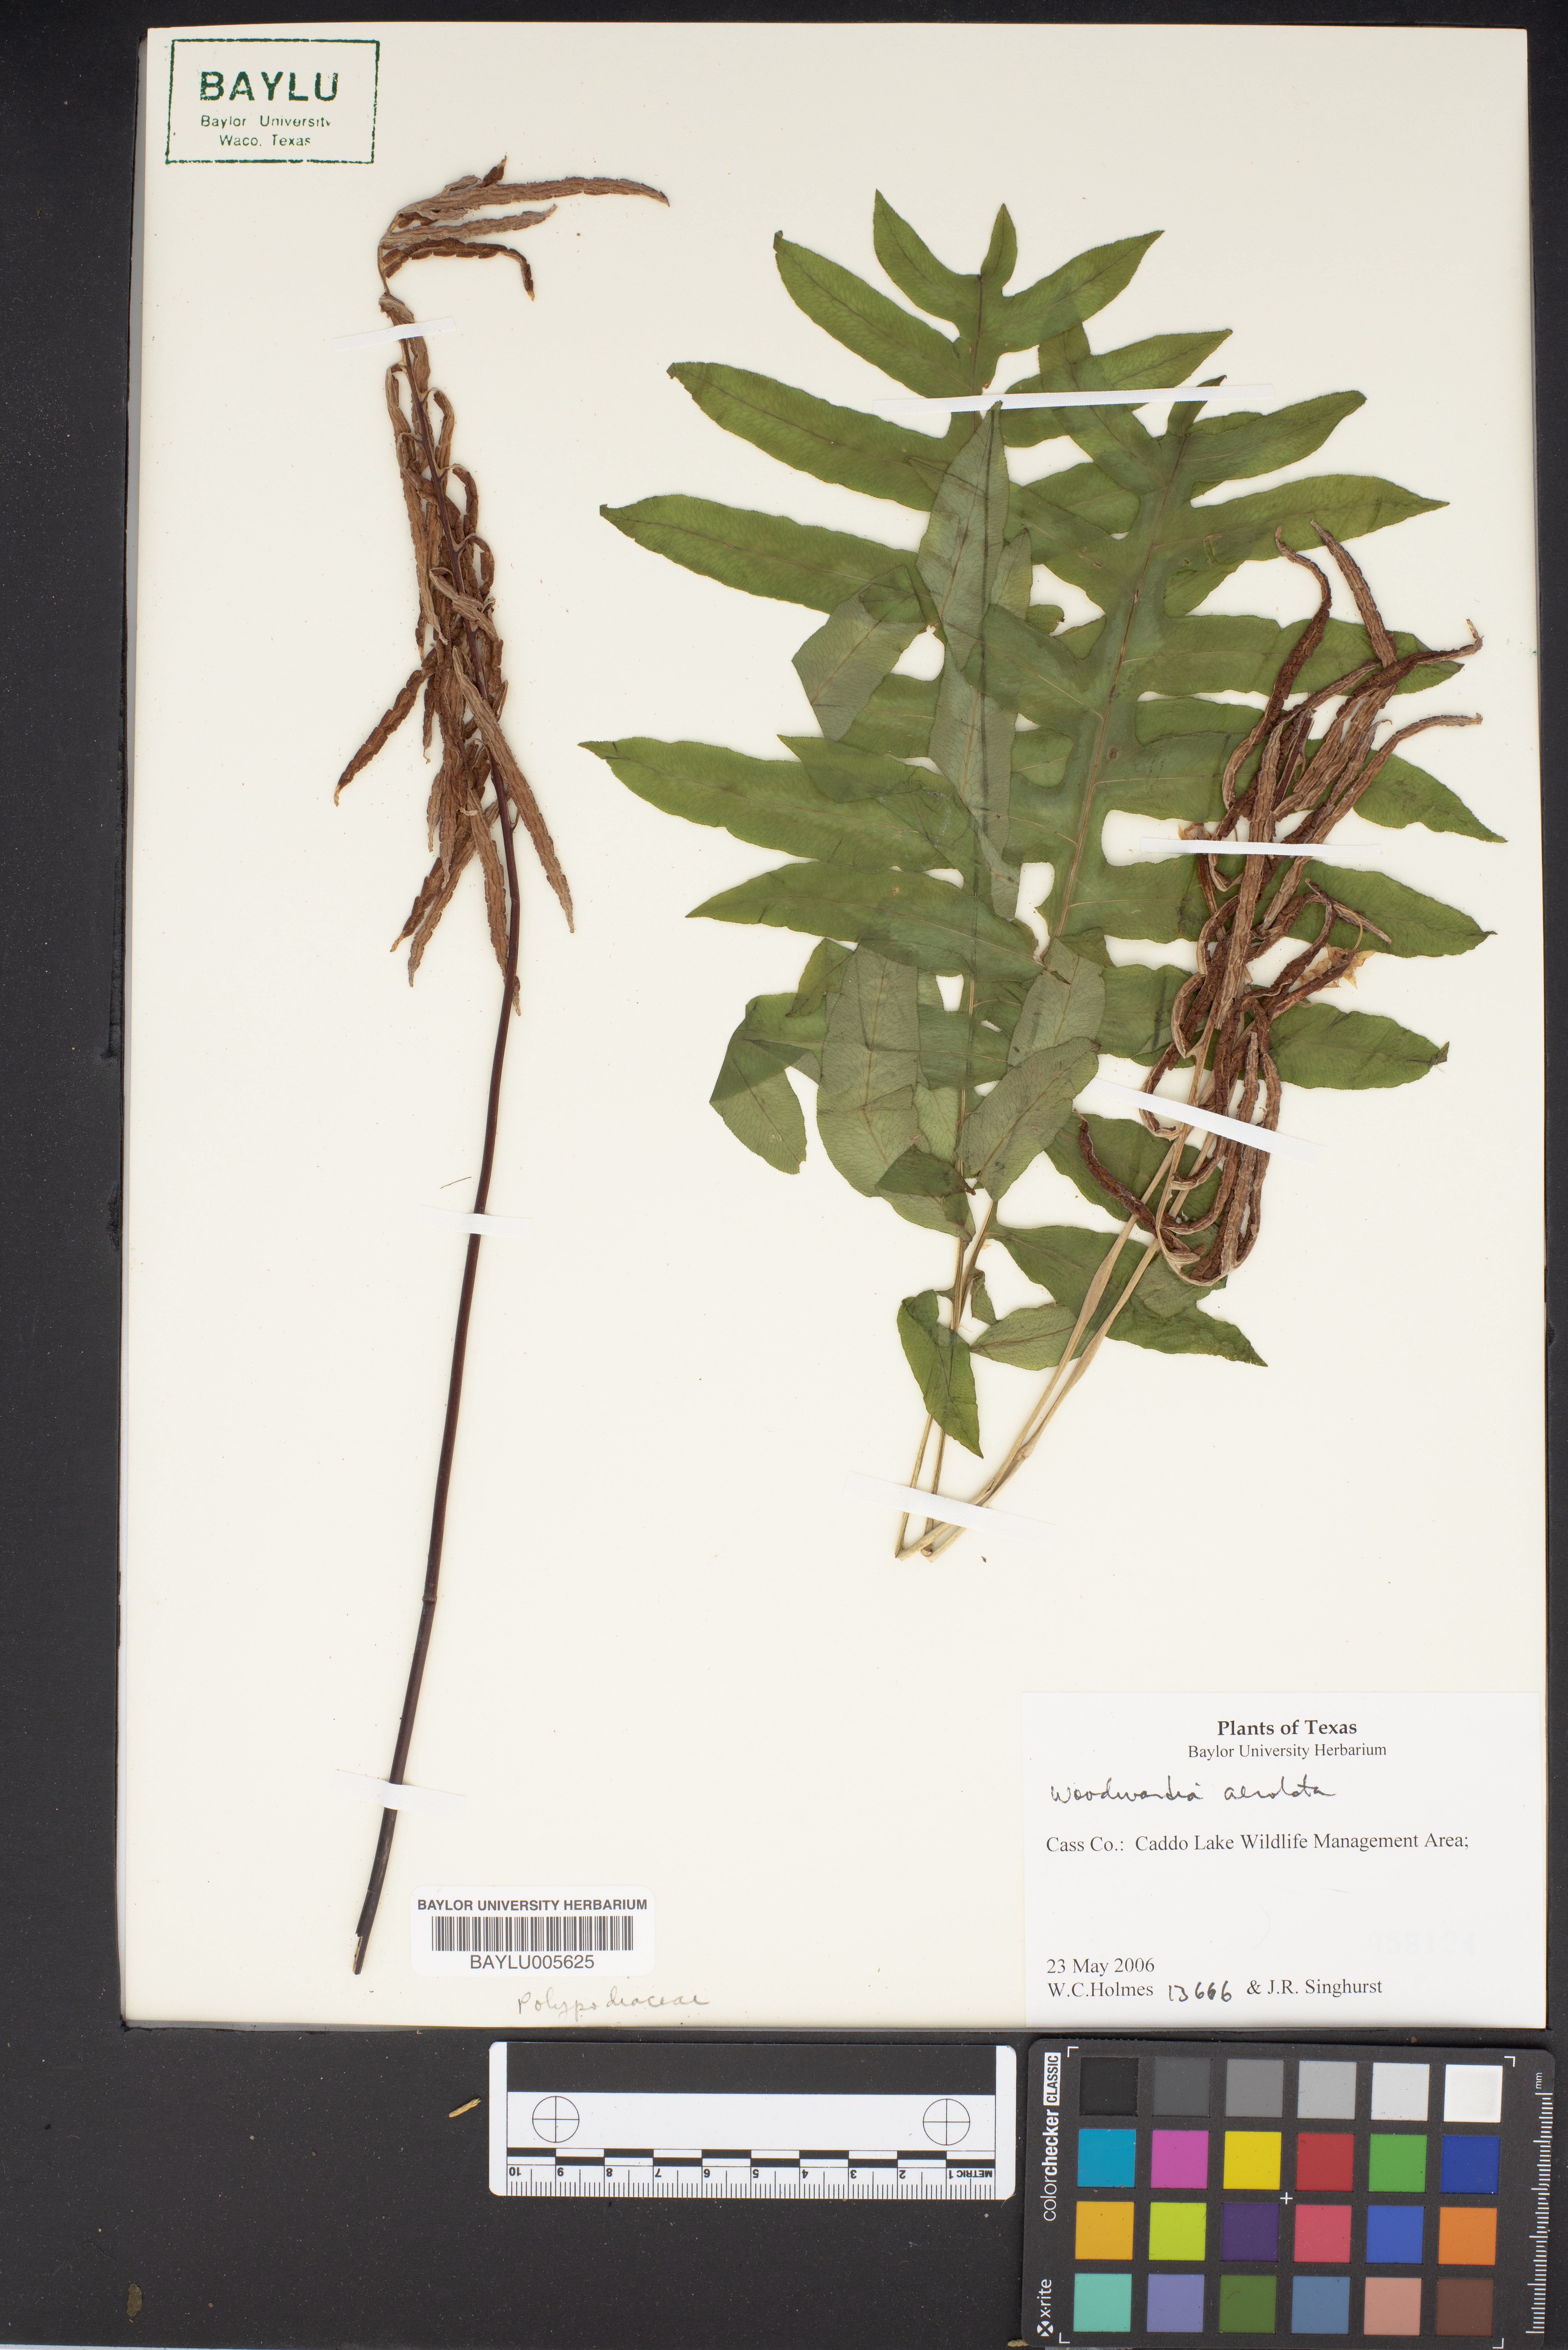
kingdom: Plantae
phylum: Tracheophyta
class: Polypodiopsida
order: Polypodiales
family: Blechnaceae
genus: Lorinseria
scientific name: Lorinseria areolata
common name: Dwarf chain fern
